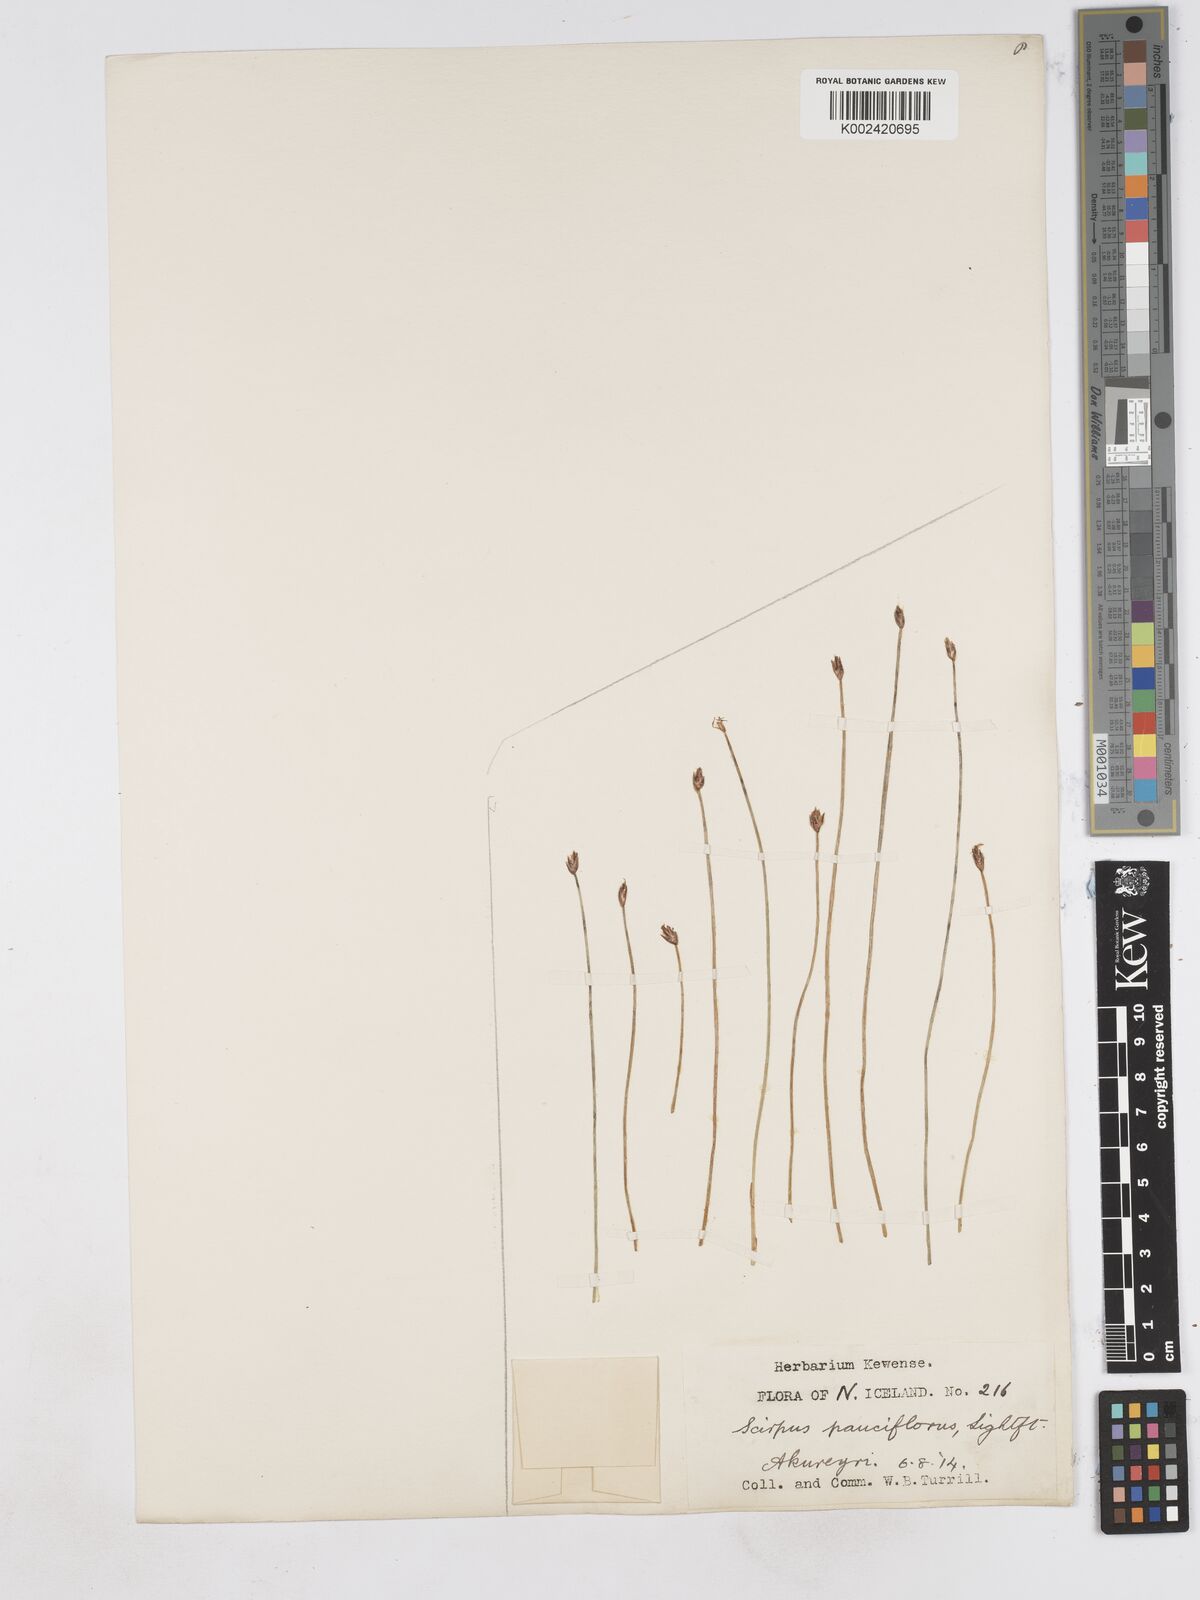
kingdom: Plantae
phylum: Tracheophyta
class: Liliopsida
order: Poales
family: Cyperaceae
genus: Eleocharis
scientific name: Eleocharis quinqueflora
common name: Few-flowered spike-rush
